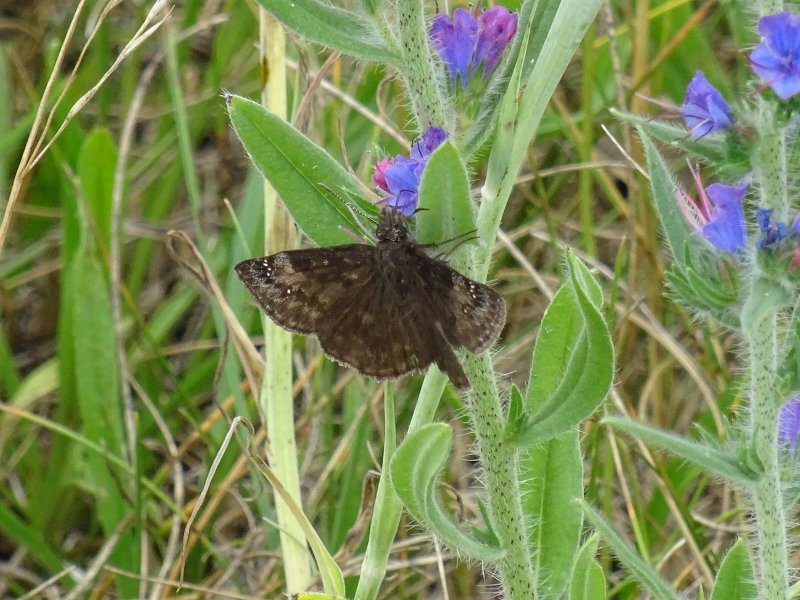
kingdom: Animalia
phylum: Arthropoda
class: Insecta
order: Lepidoptera
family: Hesperiidae
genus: Gesta
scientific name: Gesta
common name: Wild Indigo Duskywing
